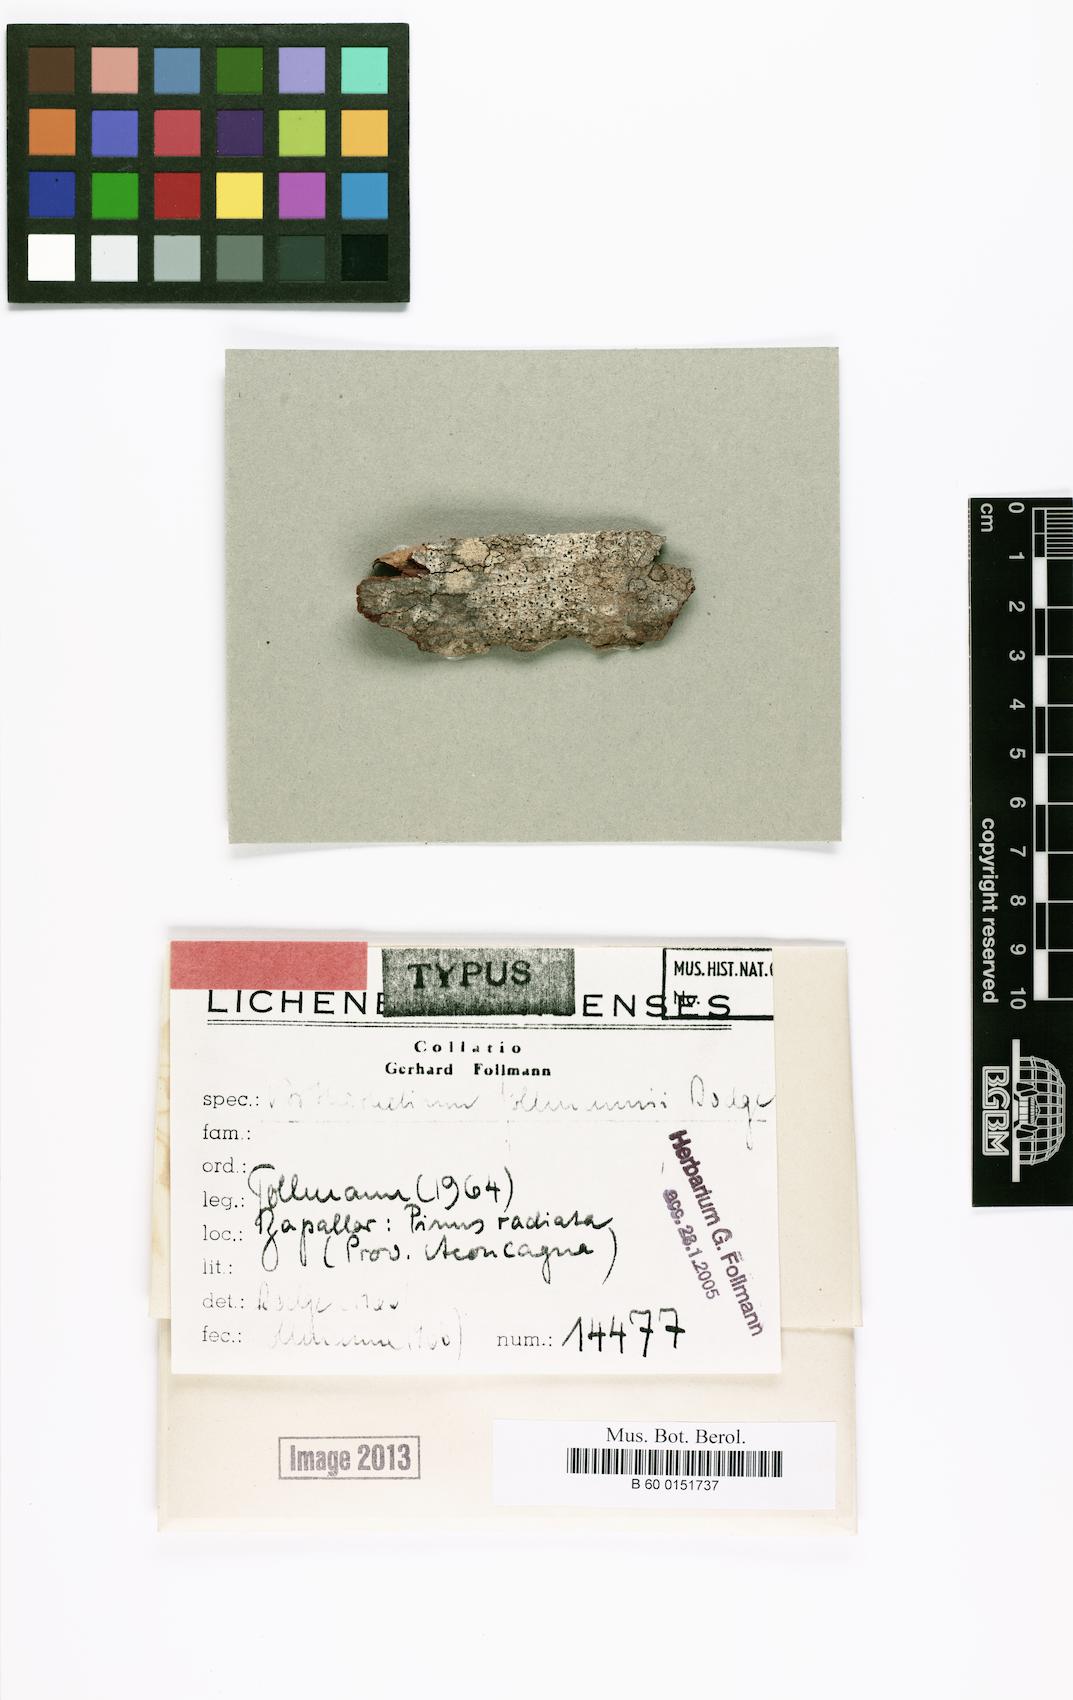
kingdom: Fungi
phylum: Ascomycota
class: Arthoniomycetes
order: Arthoniales
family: Arthoniaceae
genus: Arthothelium
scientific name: Arthothelium
